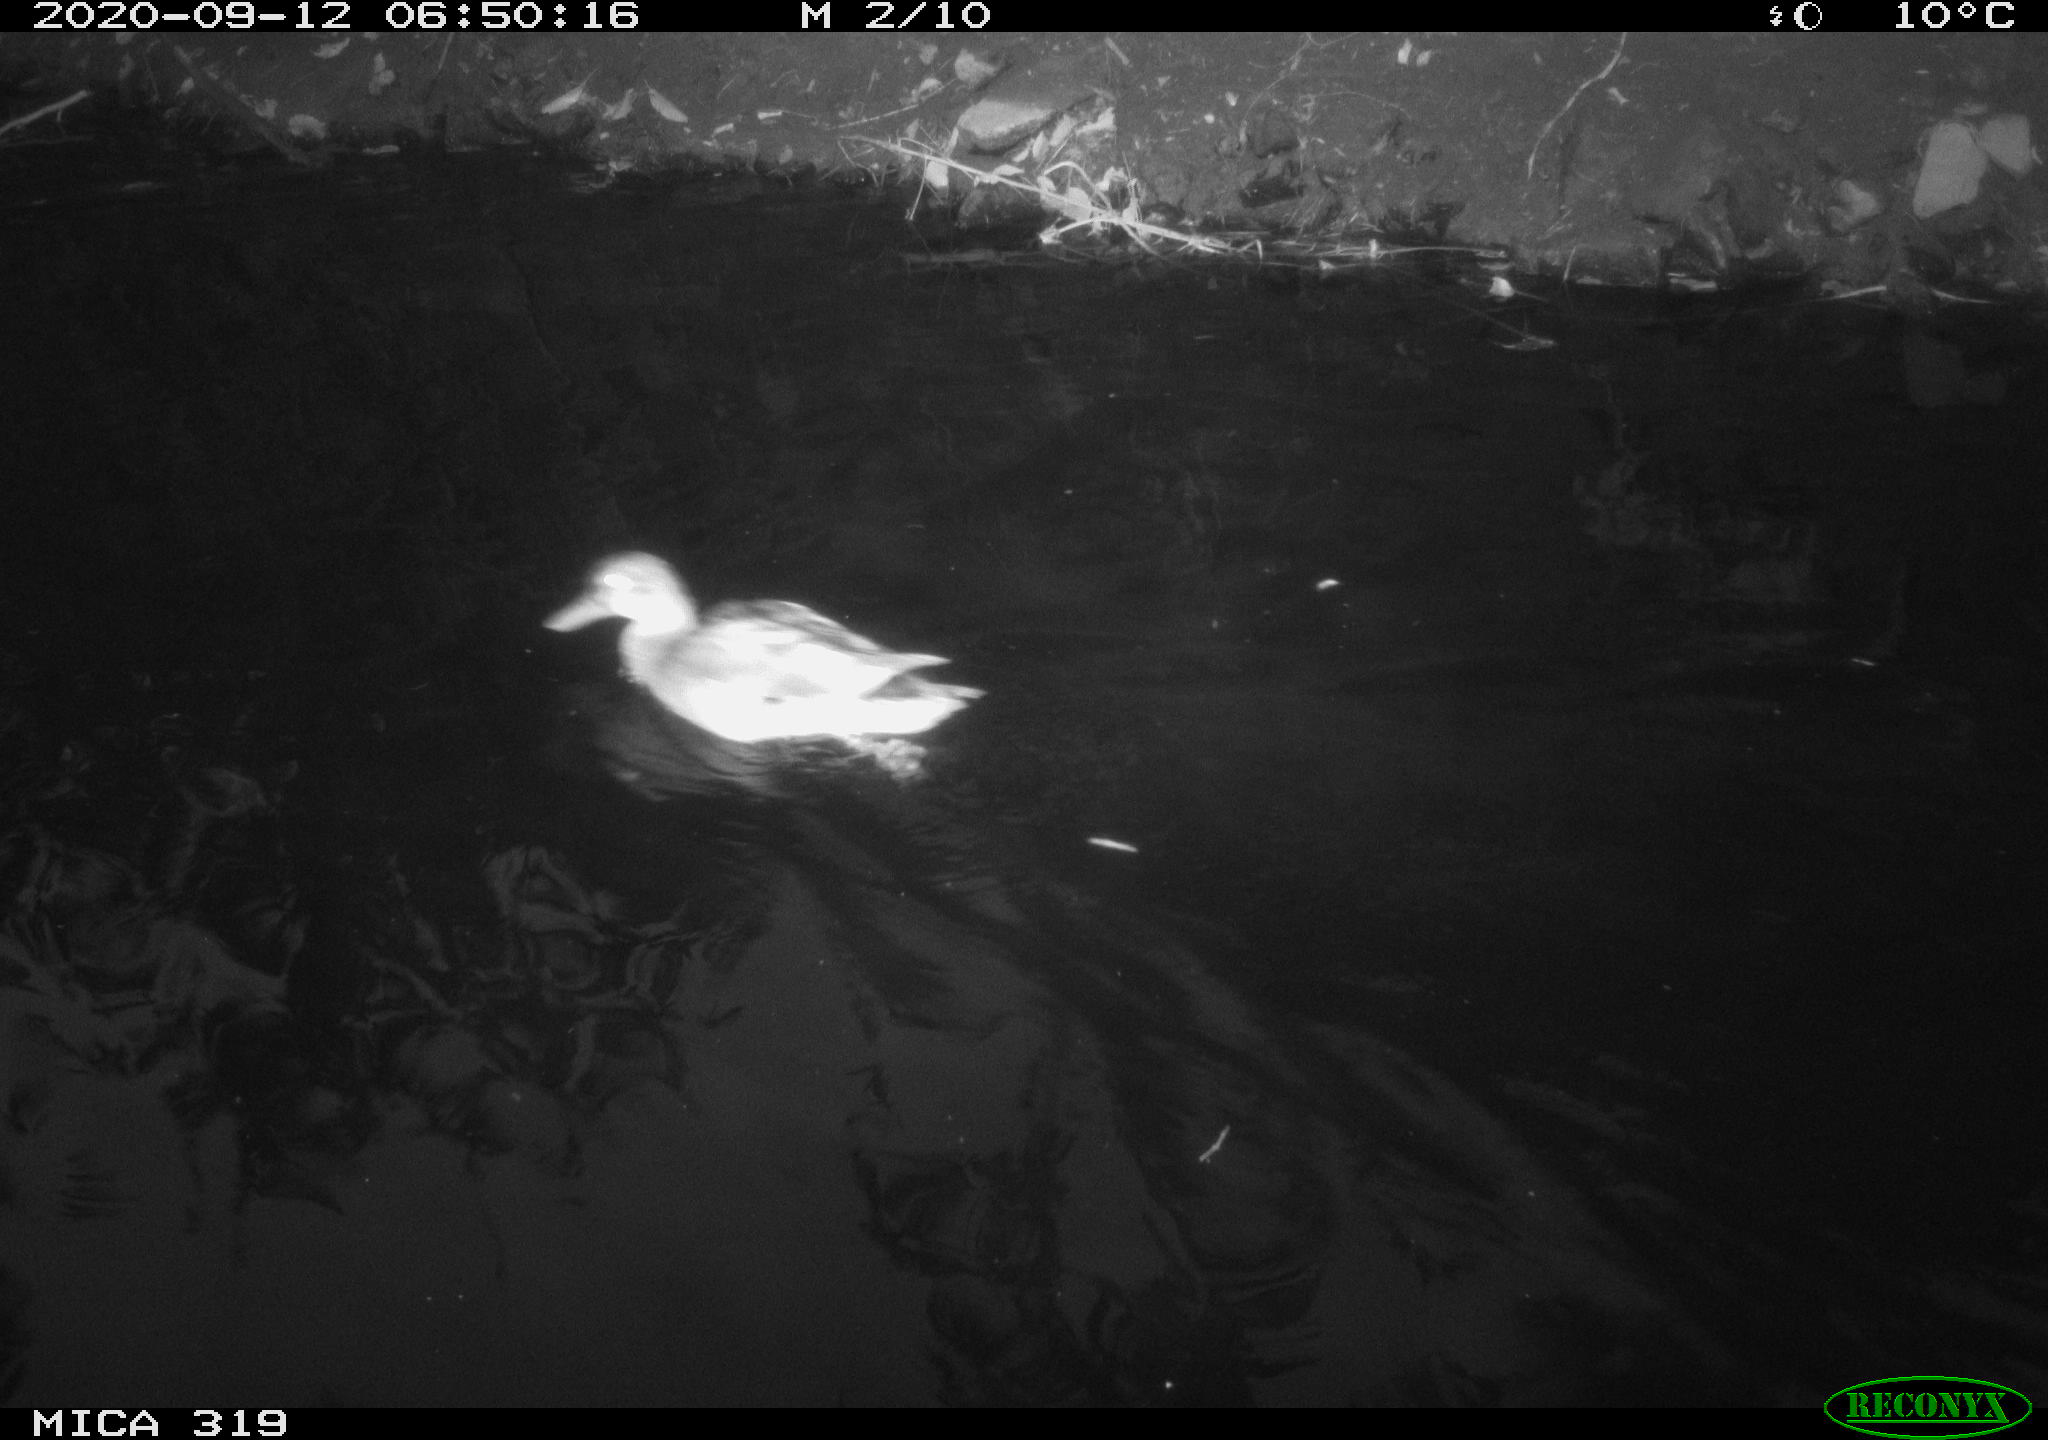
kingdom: Animalia
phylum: Chordata
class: Aves
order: Anseriformes
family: Anatidae
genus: Anas
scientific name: Anas platyrhynchos
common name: Mallard
